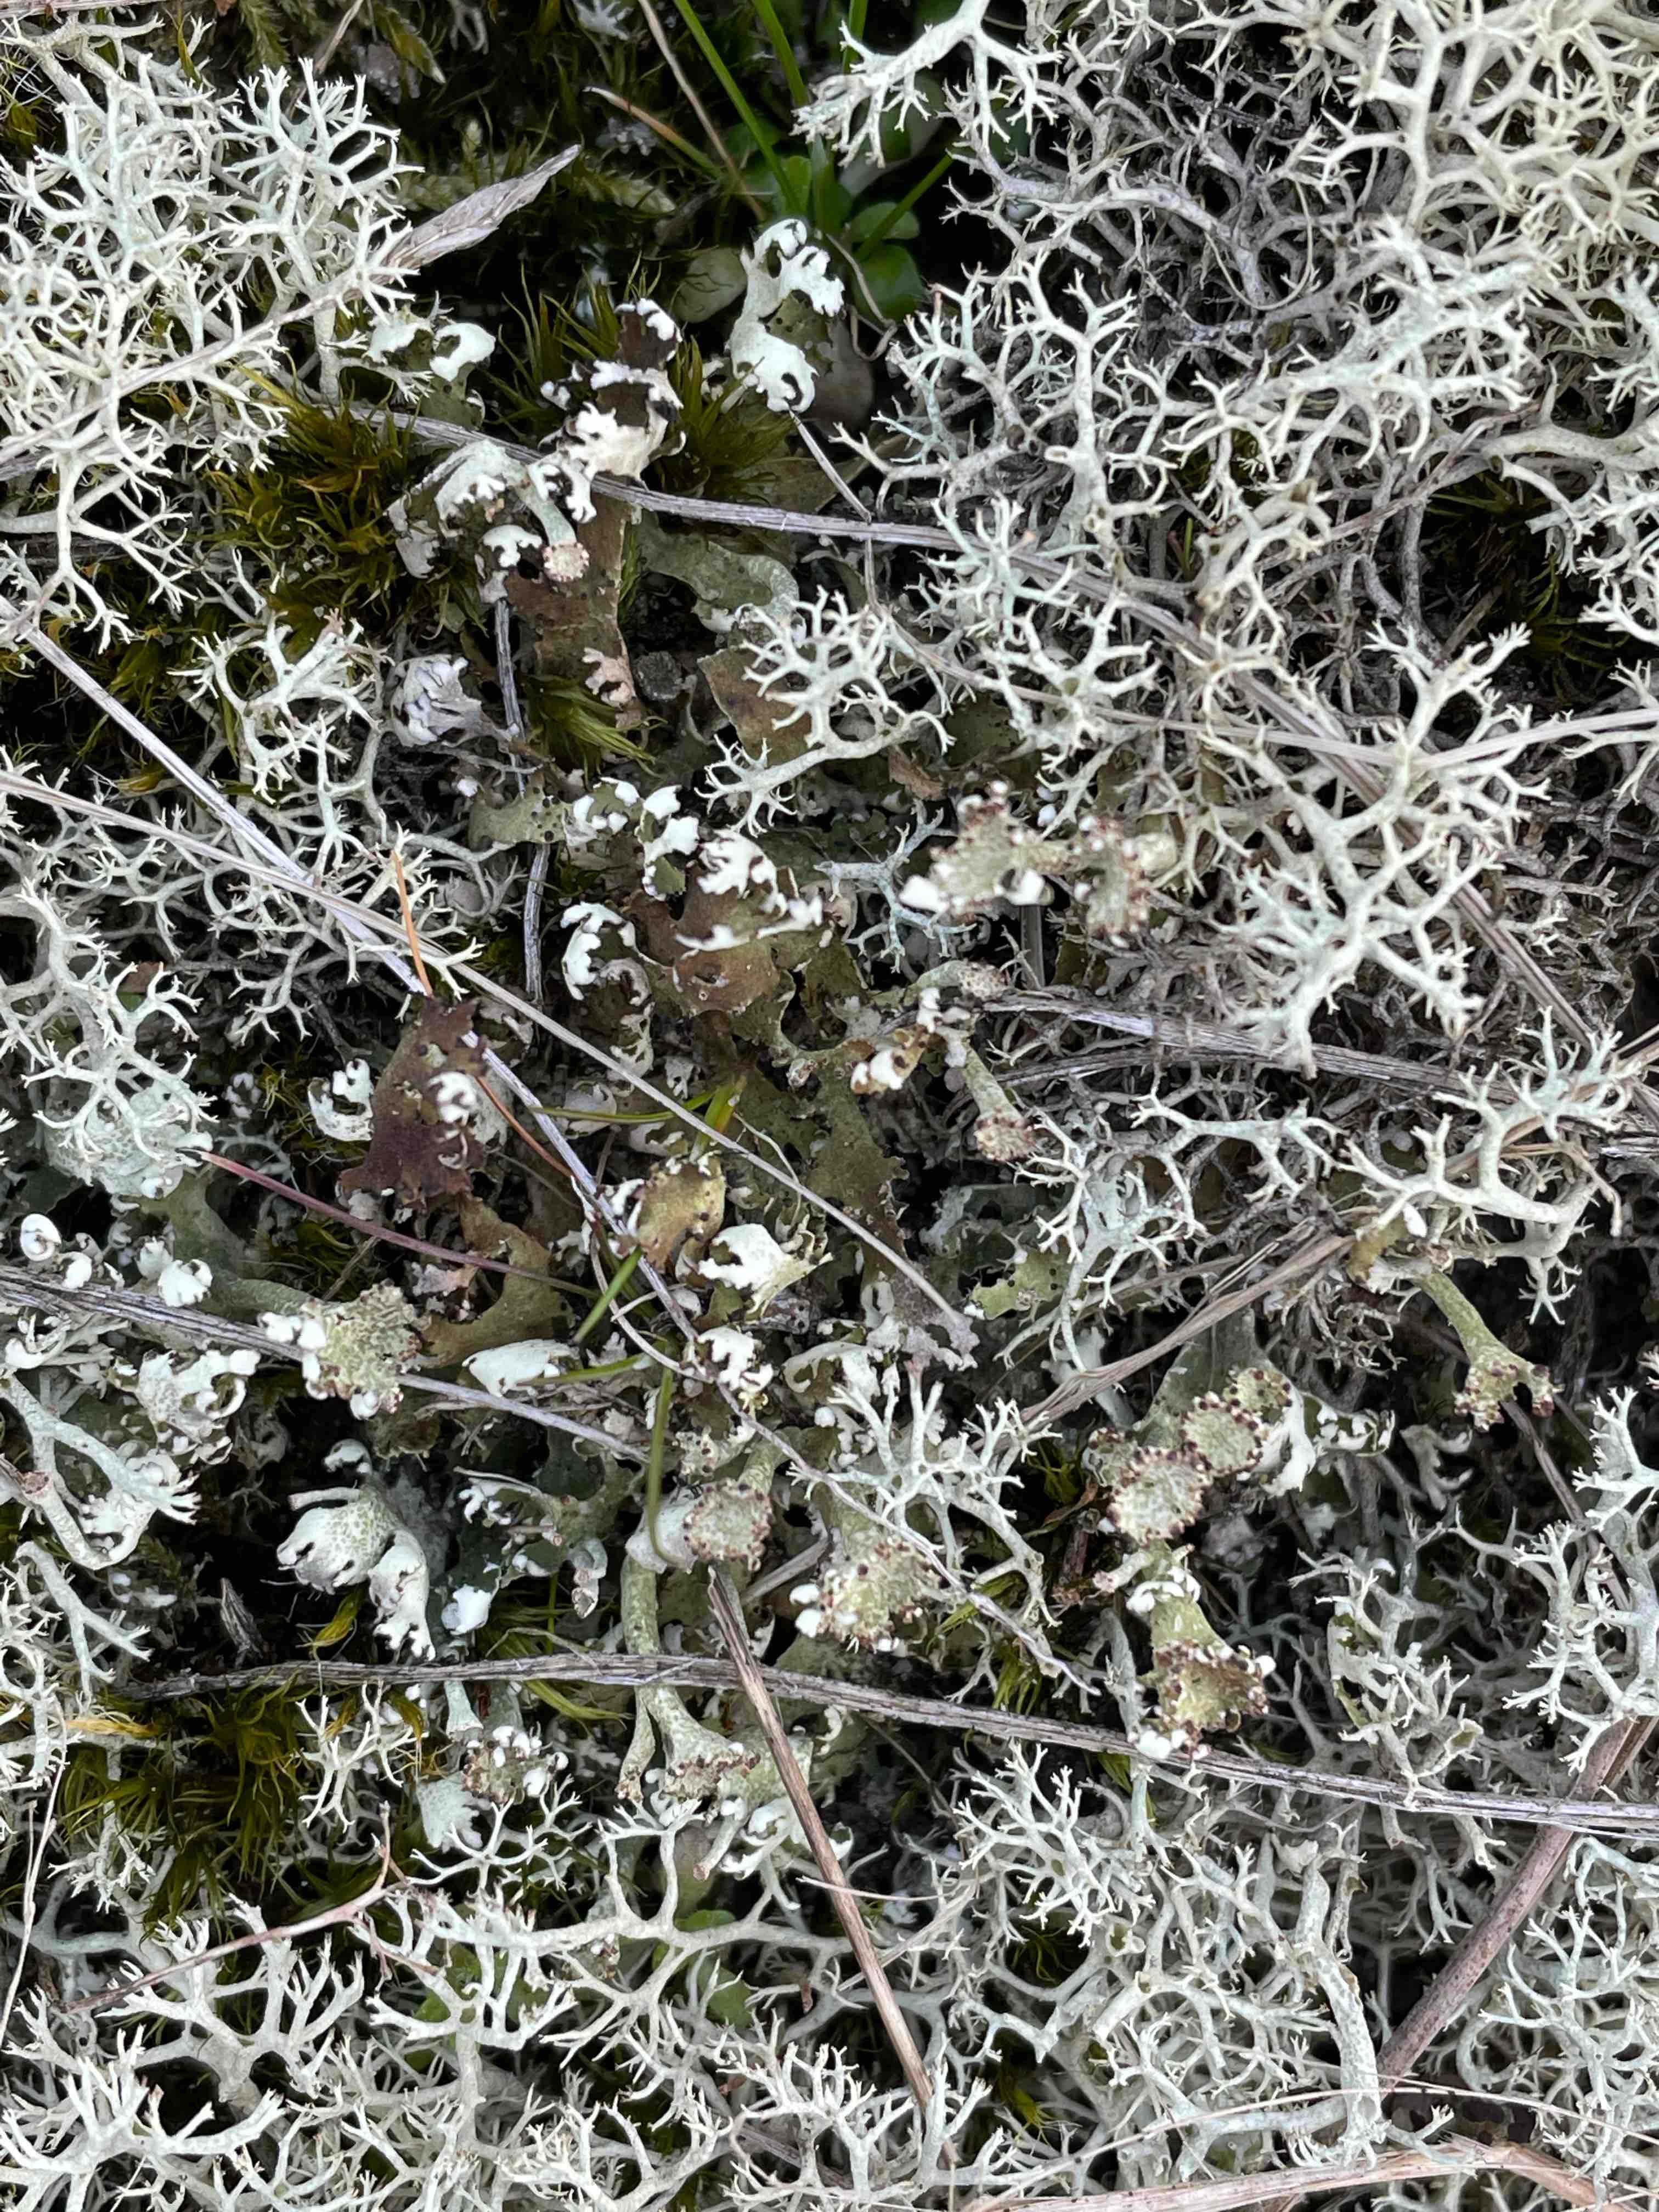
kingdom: Fungi
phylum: Ascomycota
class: Lecanoromycetes
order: Lecanorales
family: Cladoniaceae
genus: Cladonia
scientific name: Cladonia foliacea
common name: fliget bægerlav
